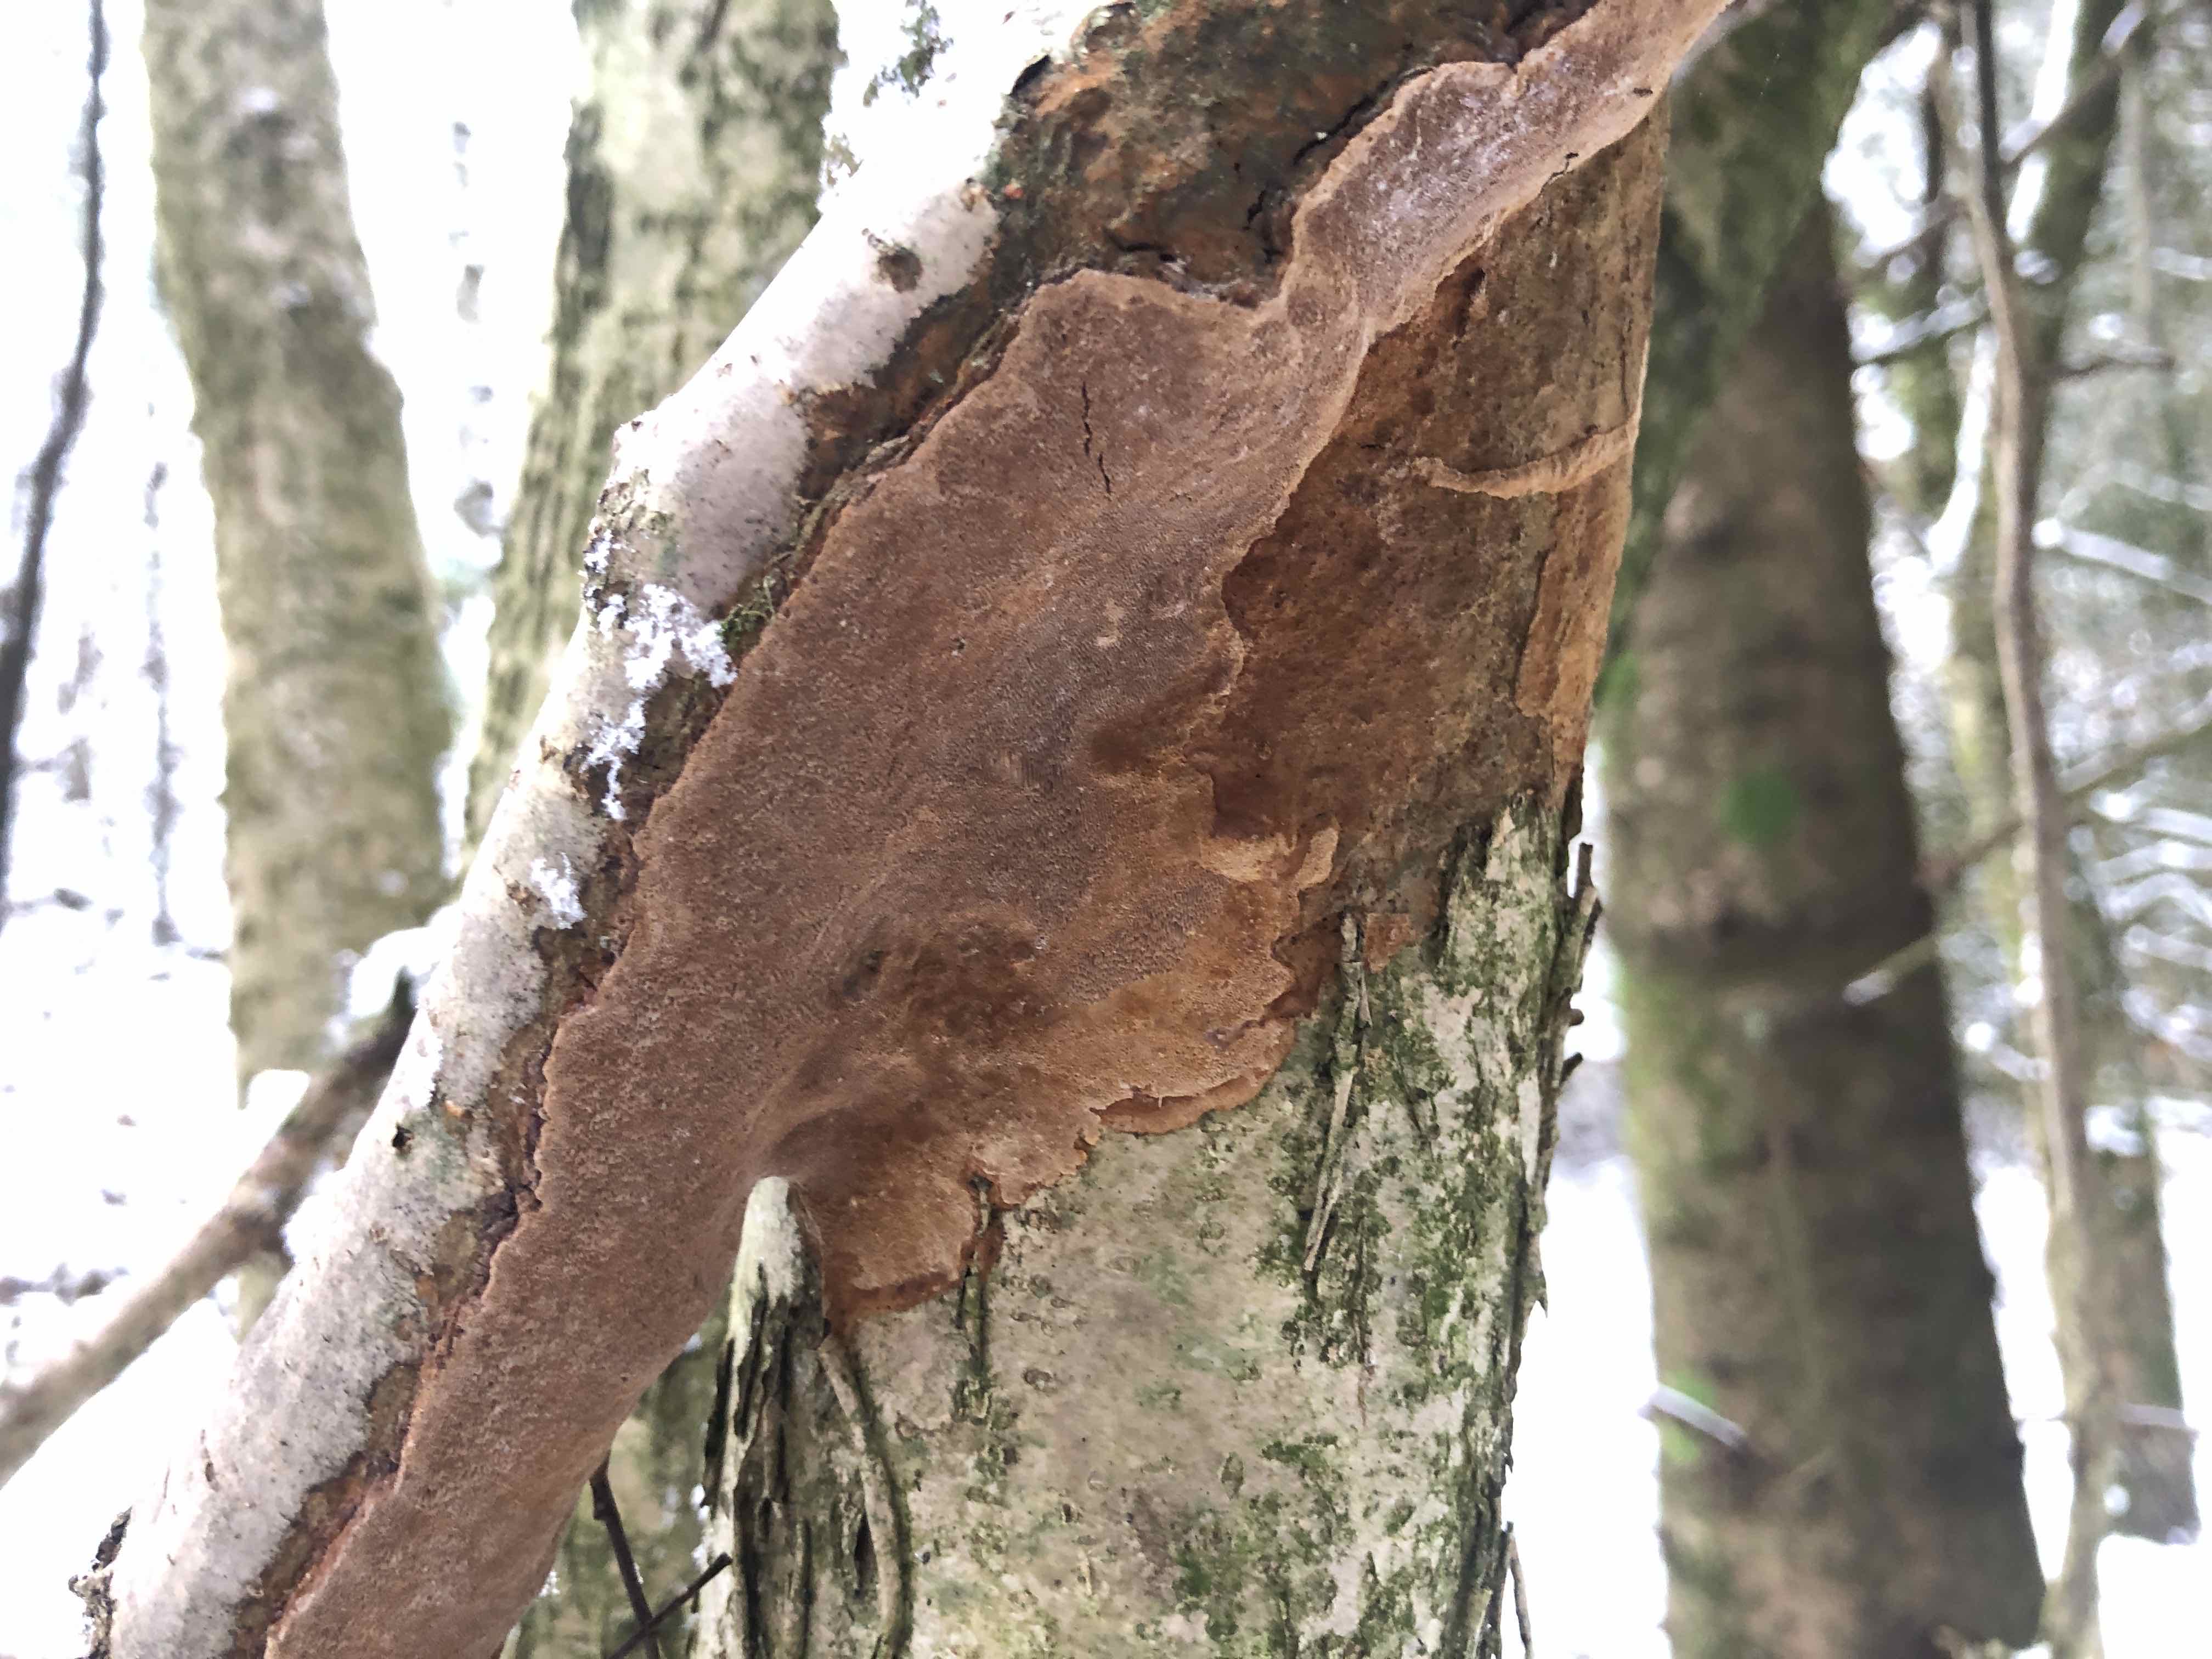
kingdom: Fungi
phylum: Basidiomycota
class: Agaricomycetes
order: Hymenochaetales
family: Hymenochaetaceae
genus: Fuscoporia
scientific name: Fuscoporia ferrea
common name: skorpe-ildporesvamp
